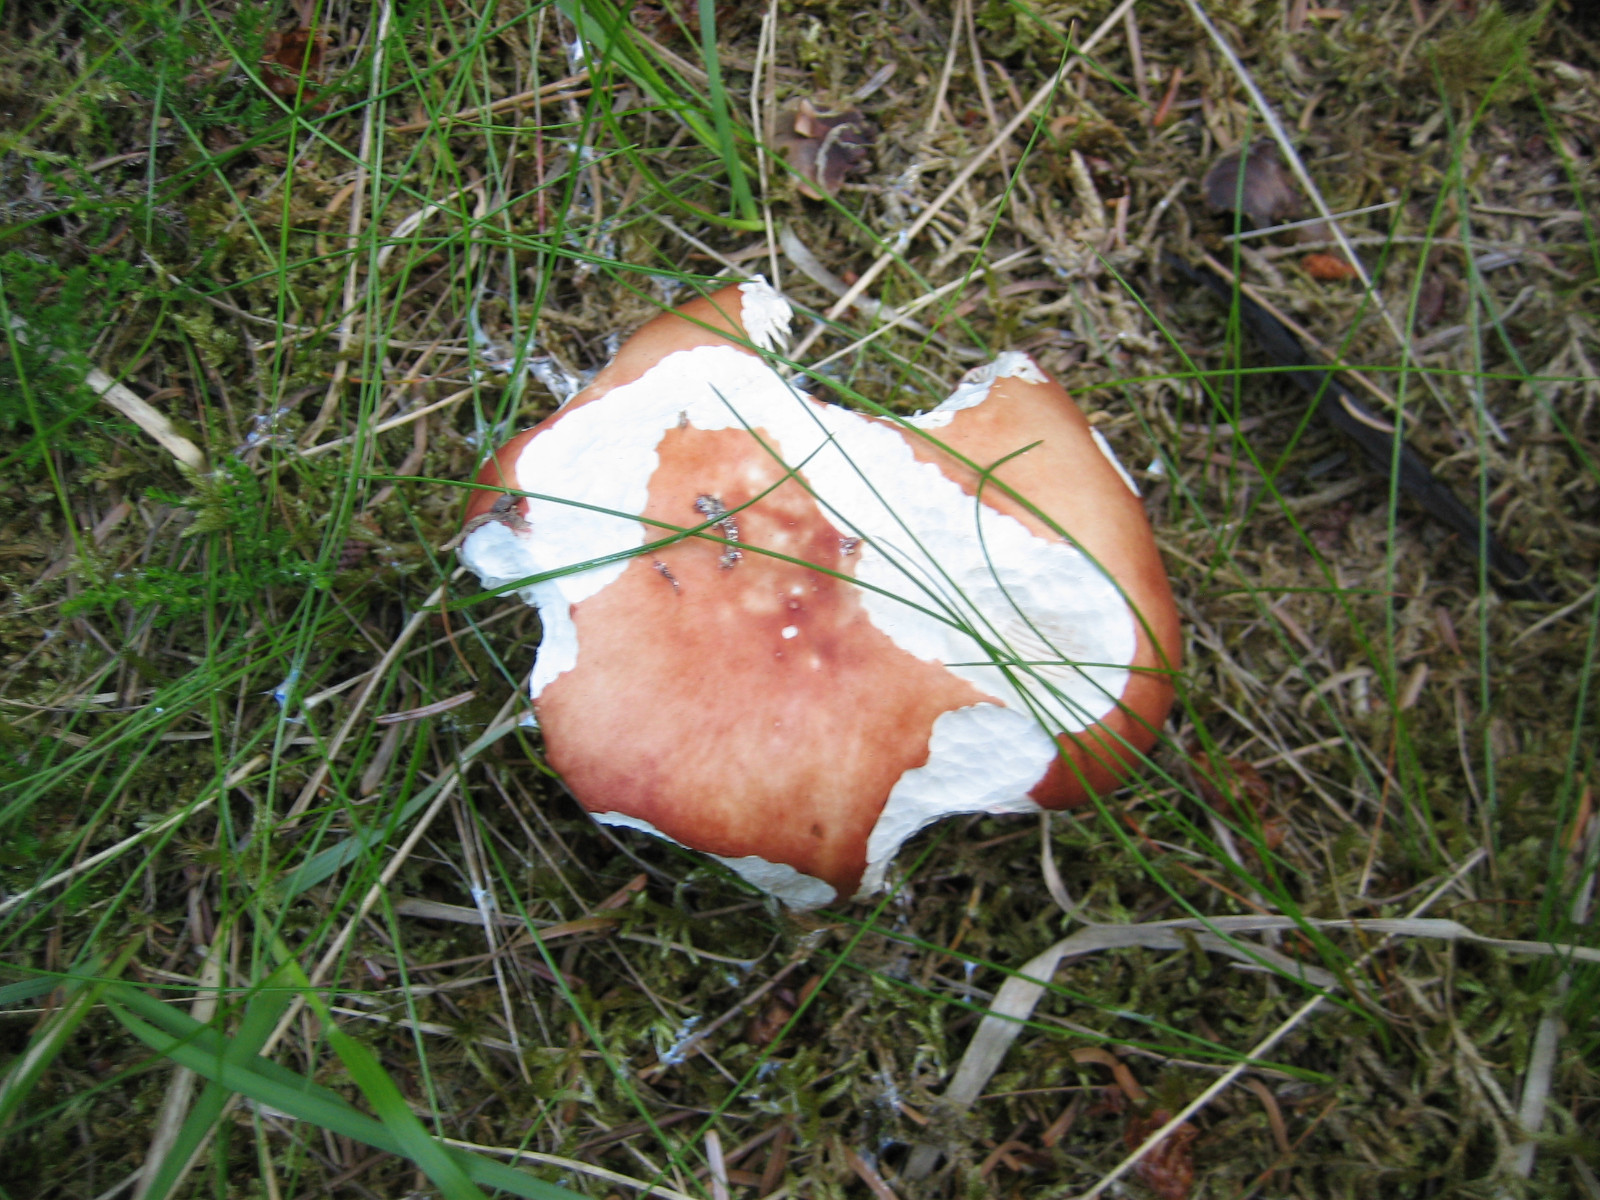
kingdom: Fungi
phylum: Basidiomycota
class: Agaricomycetes
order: Russulales
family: Russulaceae
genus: Russula
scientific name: Russula paludosa
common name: prægtig skørhat
